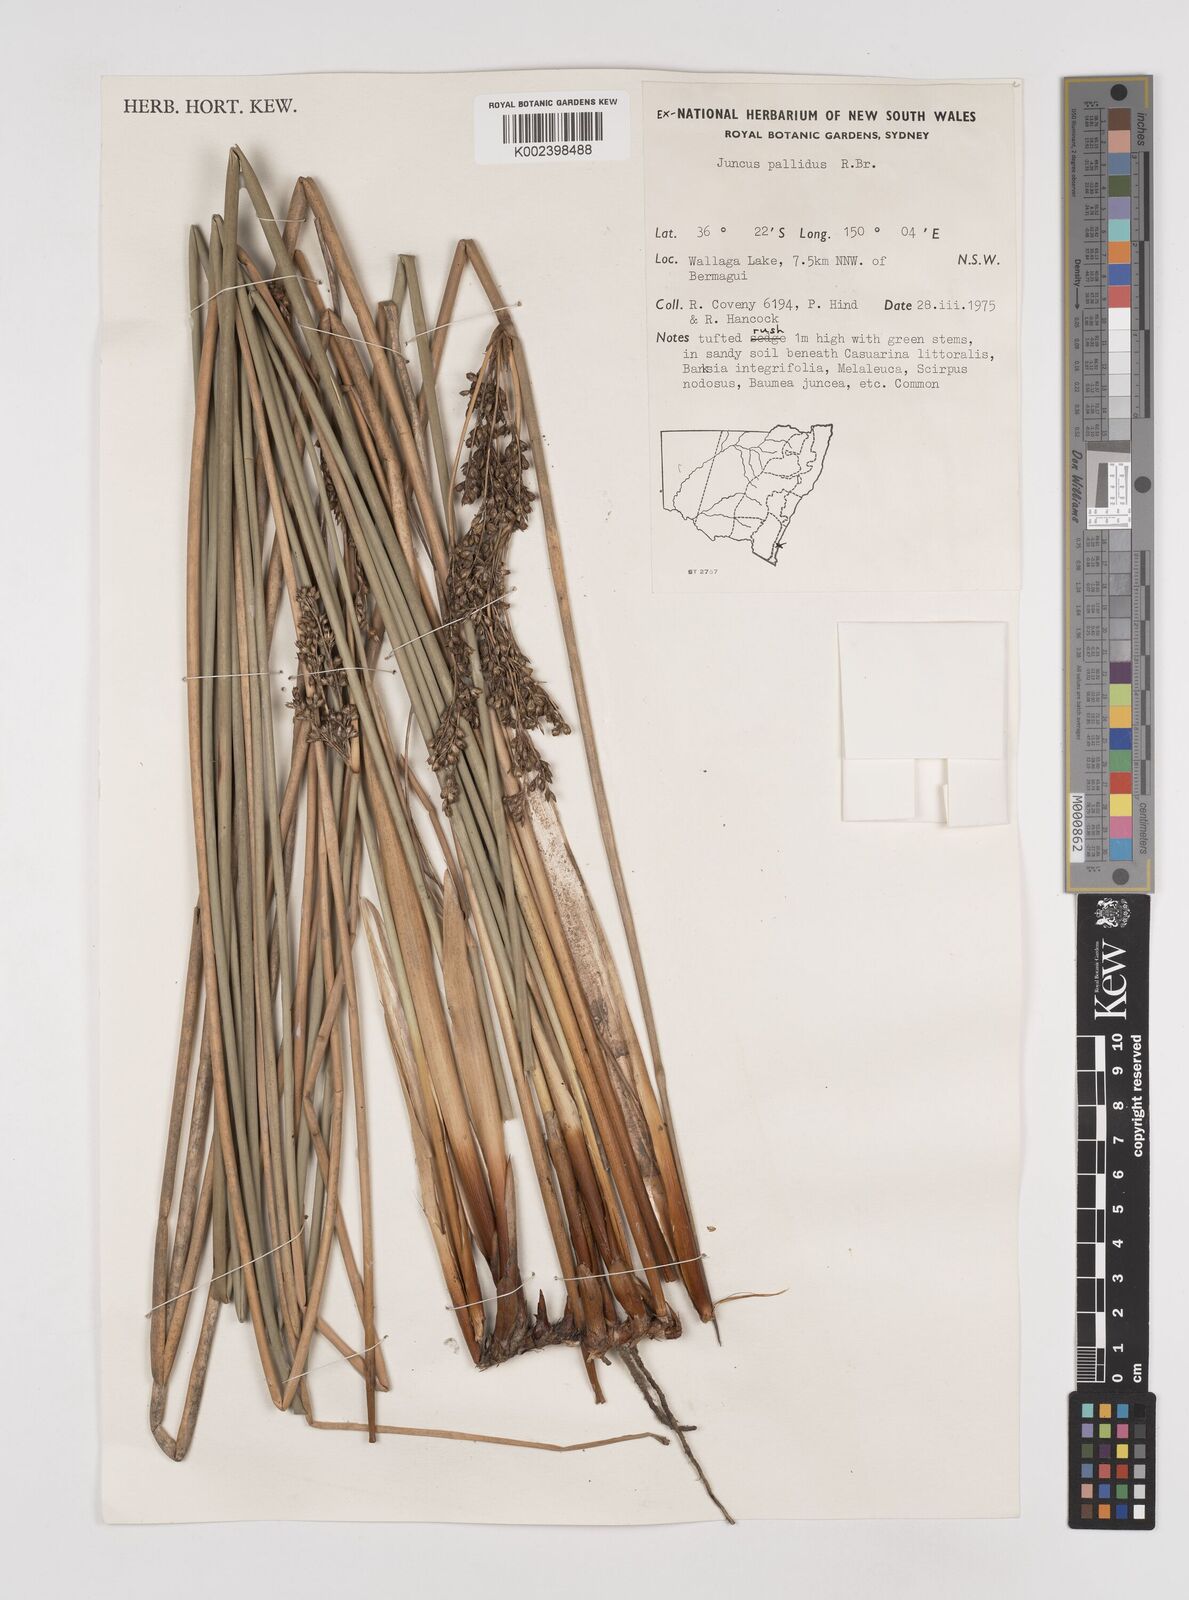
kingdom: Plantae
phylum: Tracheophyta
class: Liliopsida
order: Poales
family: Juncaceae
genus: Juncus
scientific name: Juncus pallidus
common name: Great soft-rush
